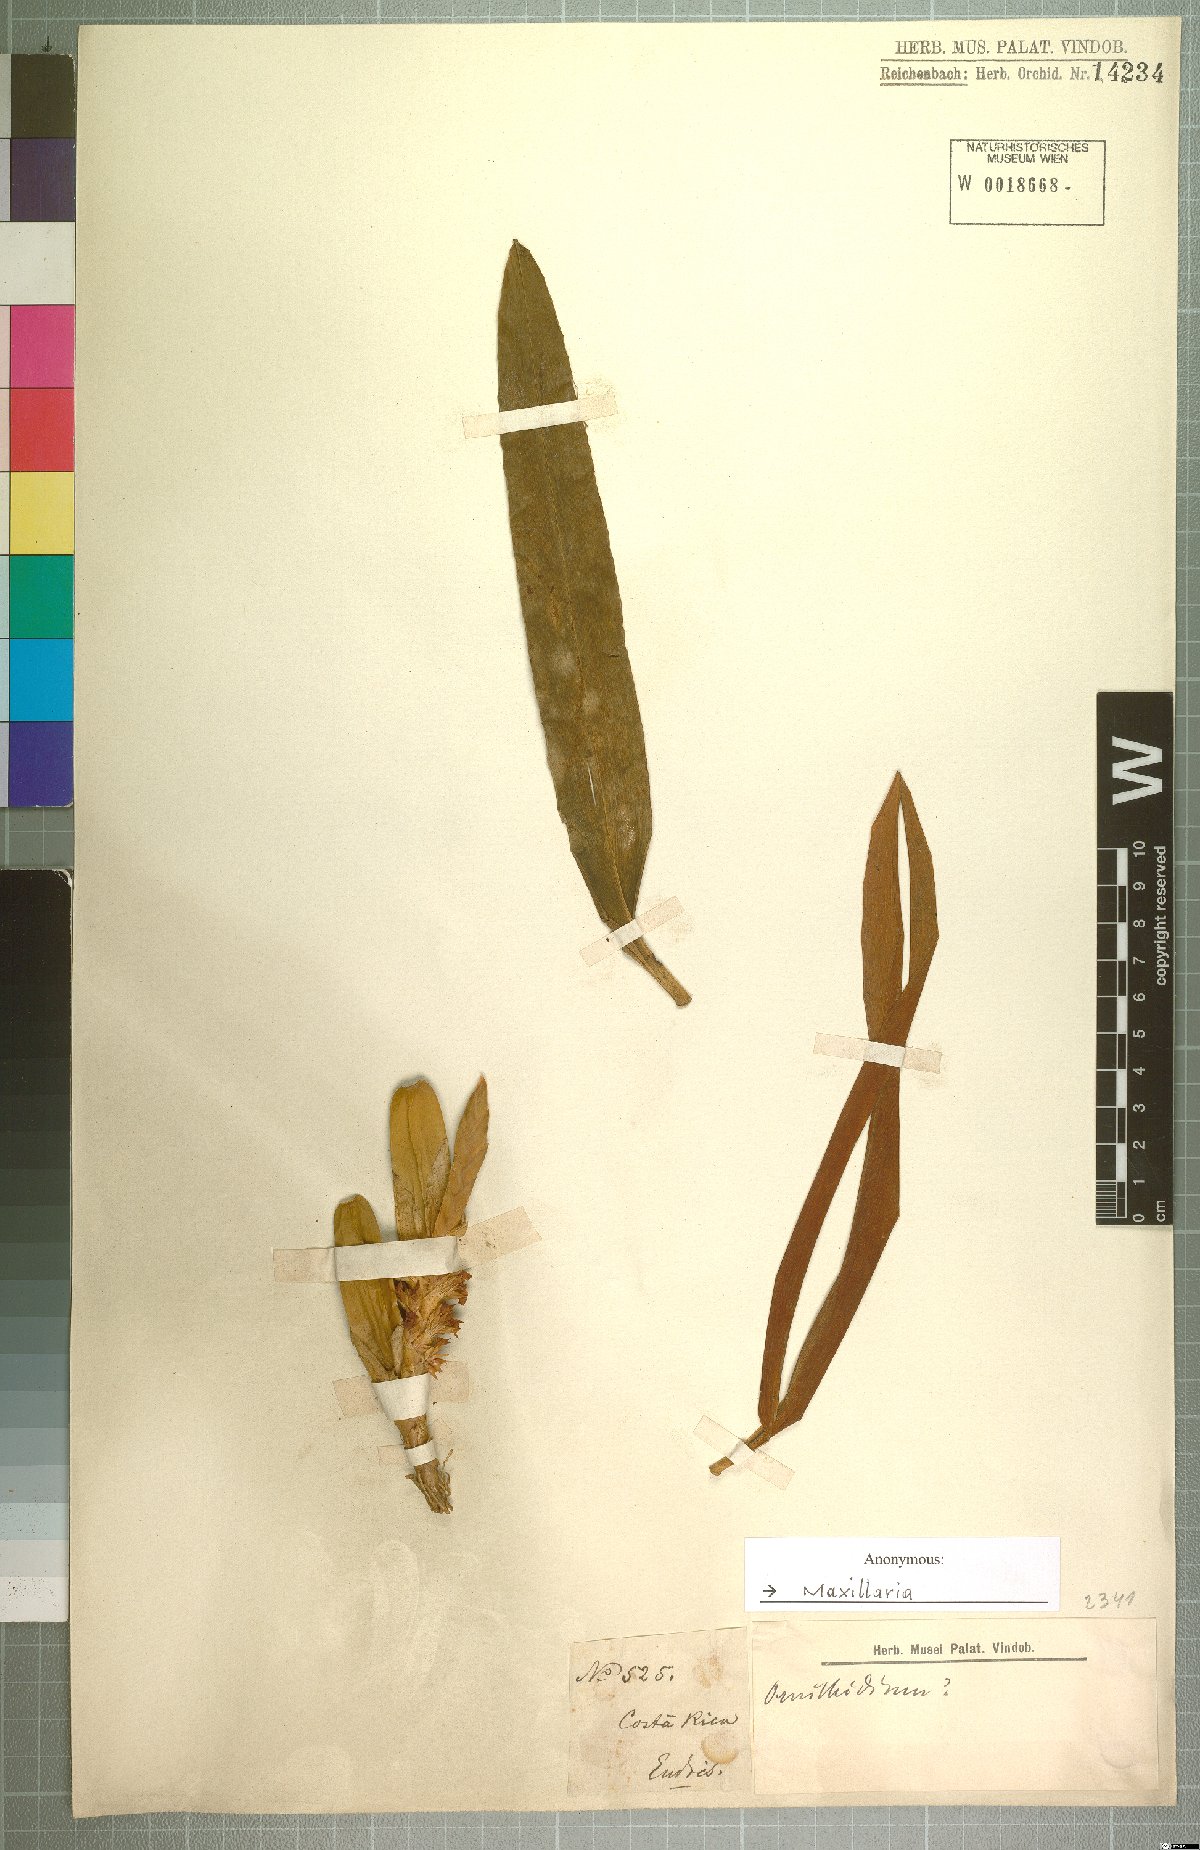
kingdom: Plantae
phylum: Tracheophyta
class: Liliopsida
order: Asparagales
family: Orchidaceae
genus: Maxillaria
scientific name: Maxillaria
